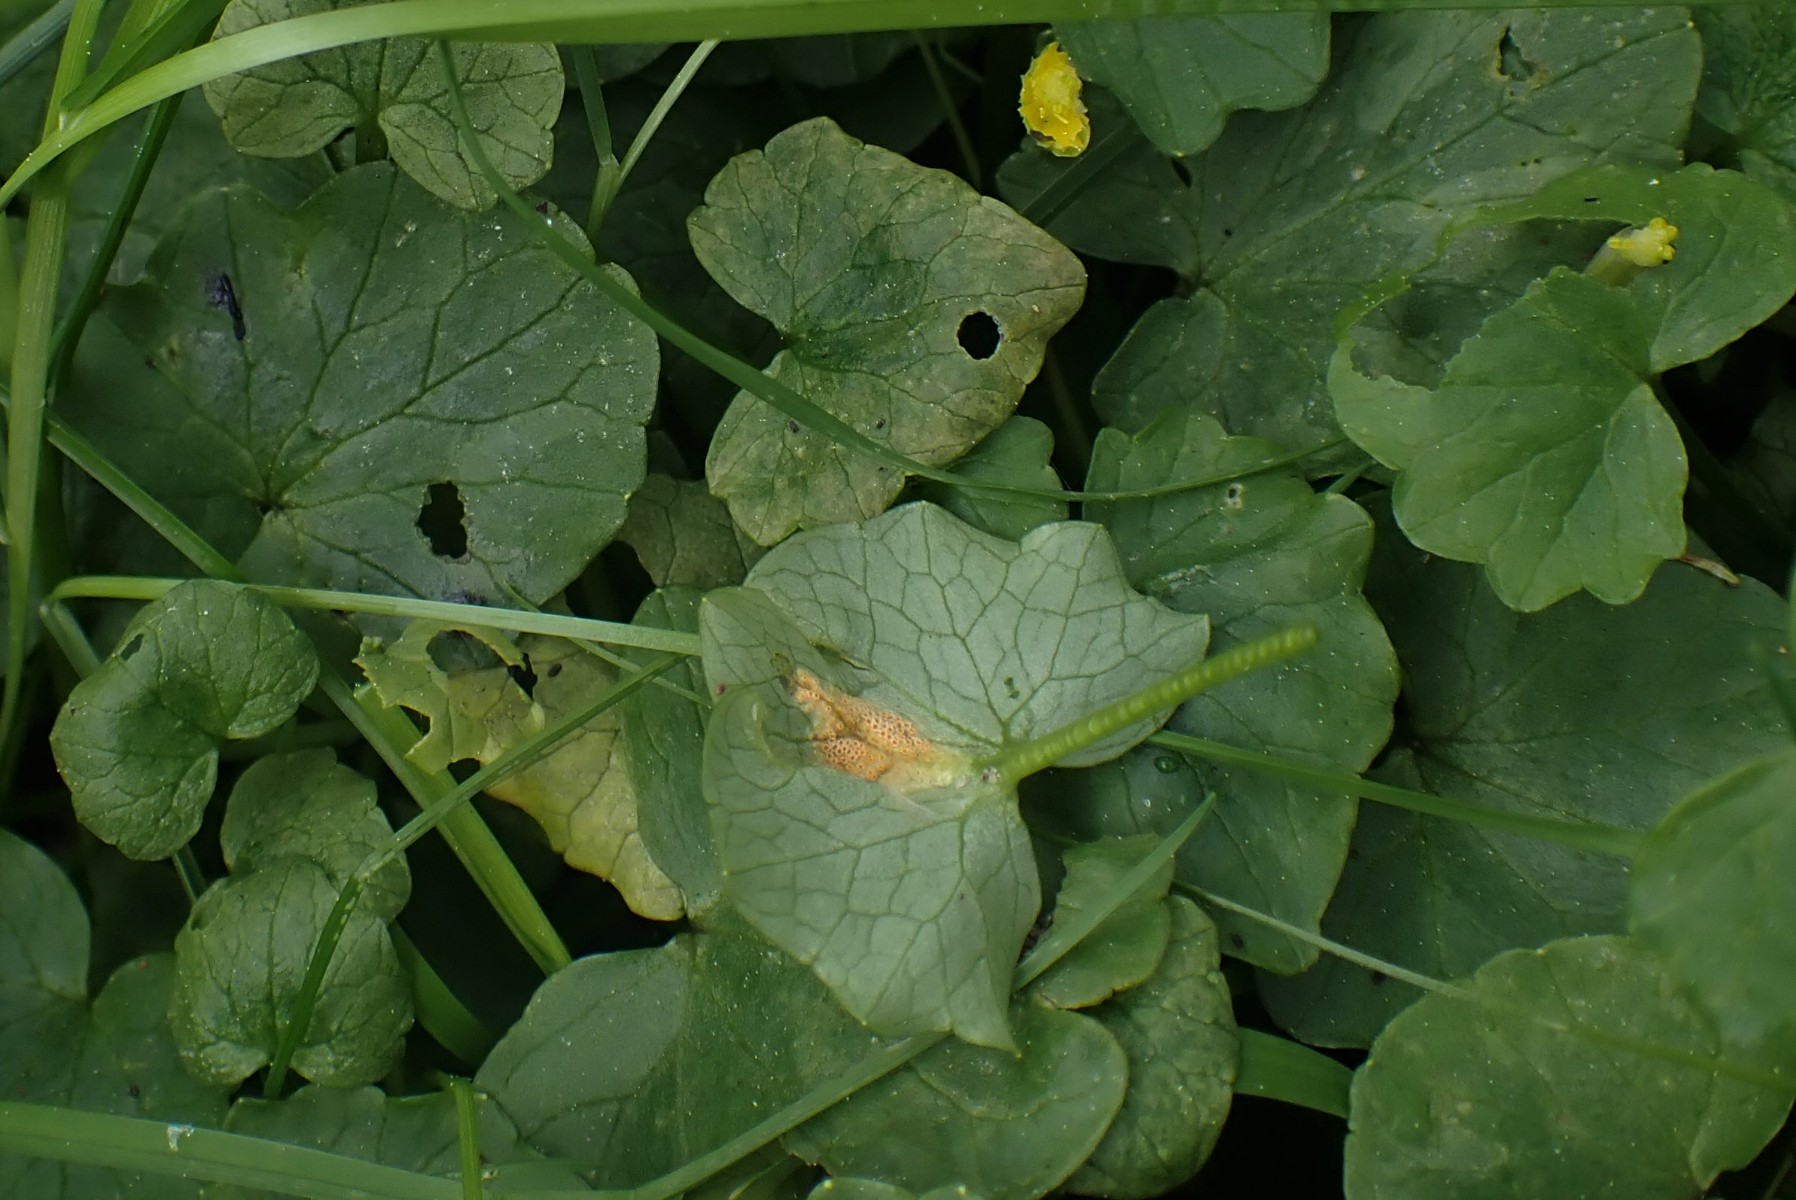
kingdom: Fungi
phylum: Basidiomycota
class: Pucciniomycetes
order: Pucciniales
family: Pucciniaceae
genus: Uromyces
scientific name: Uromyces dactylidis
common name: ranunkel-encellerust
